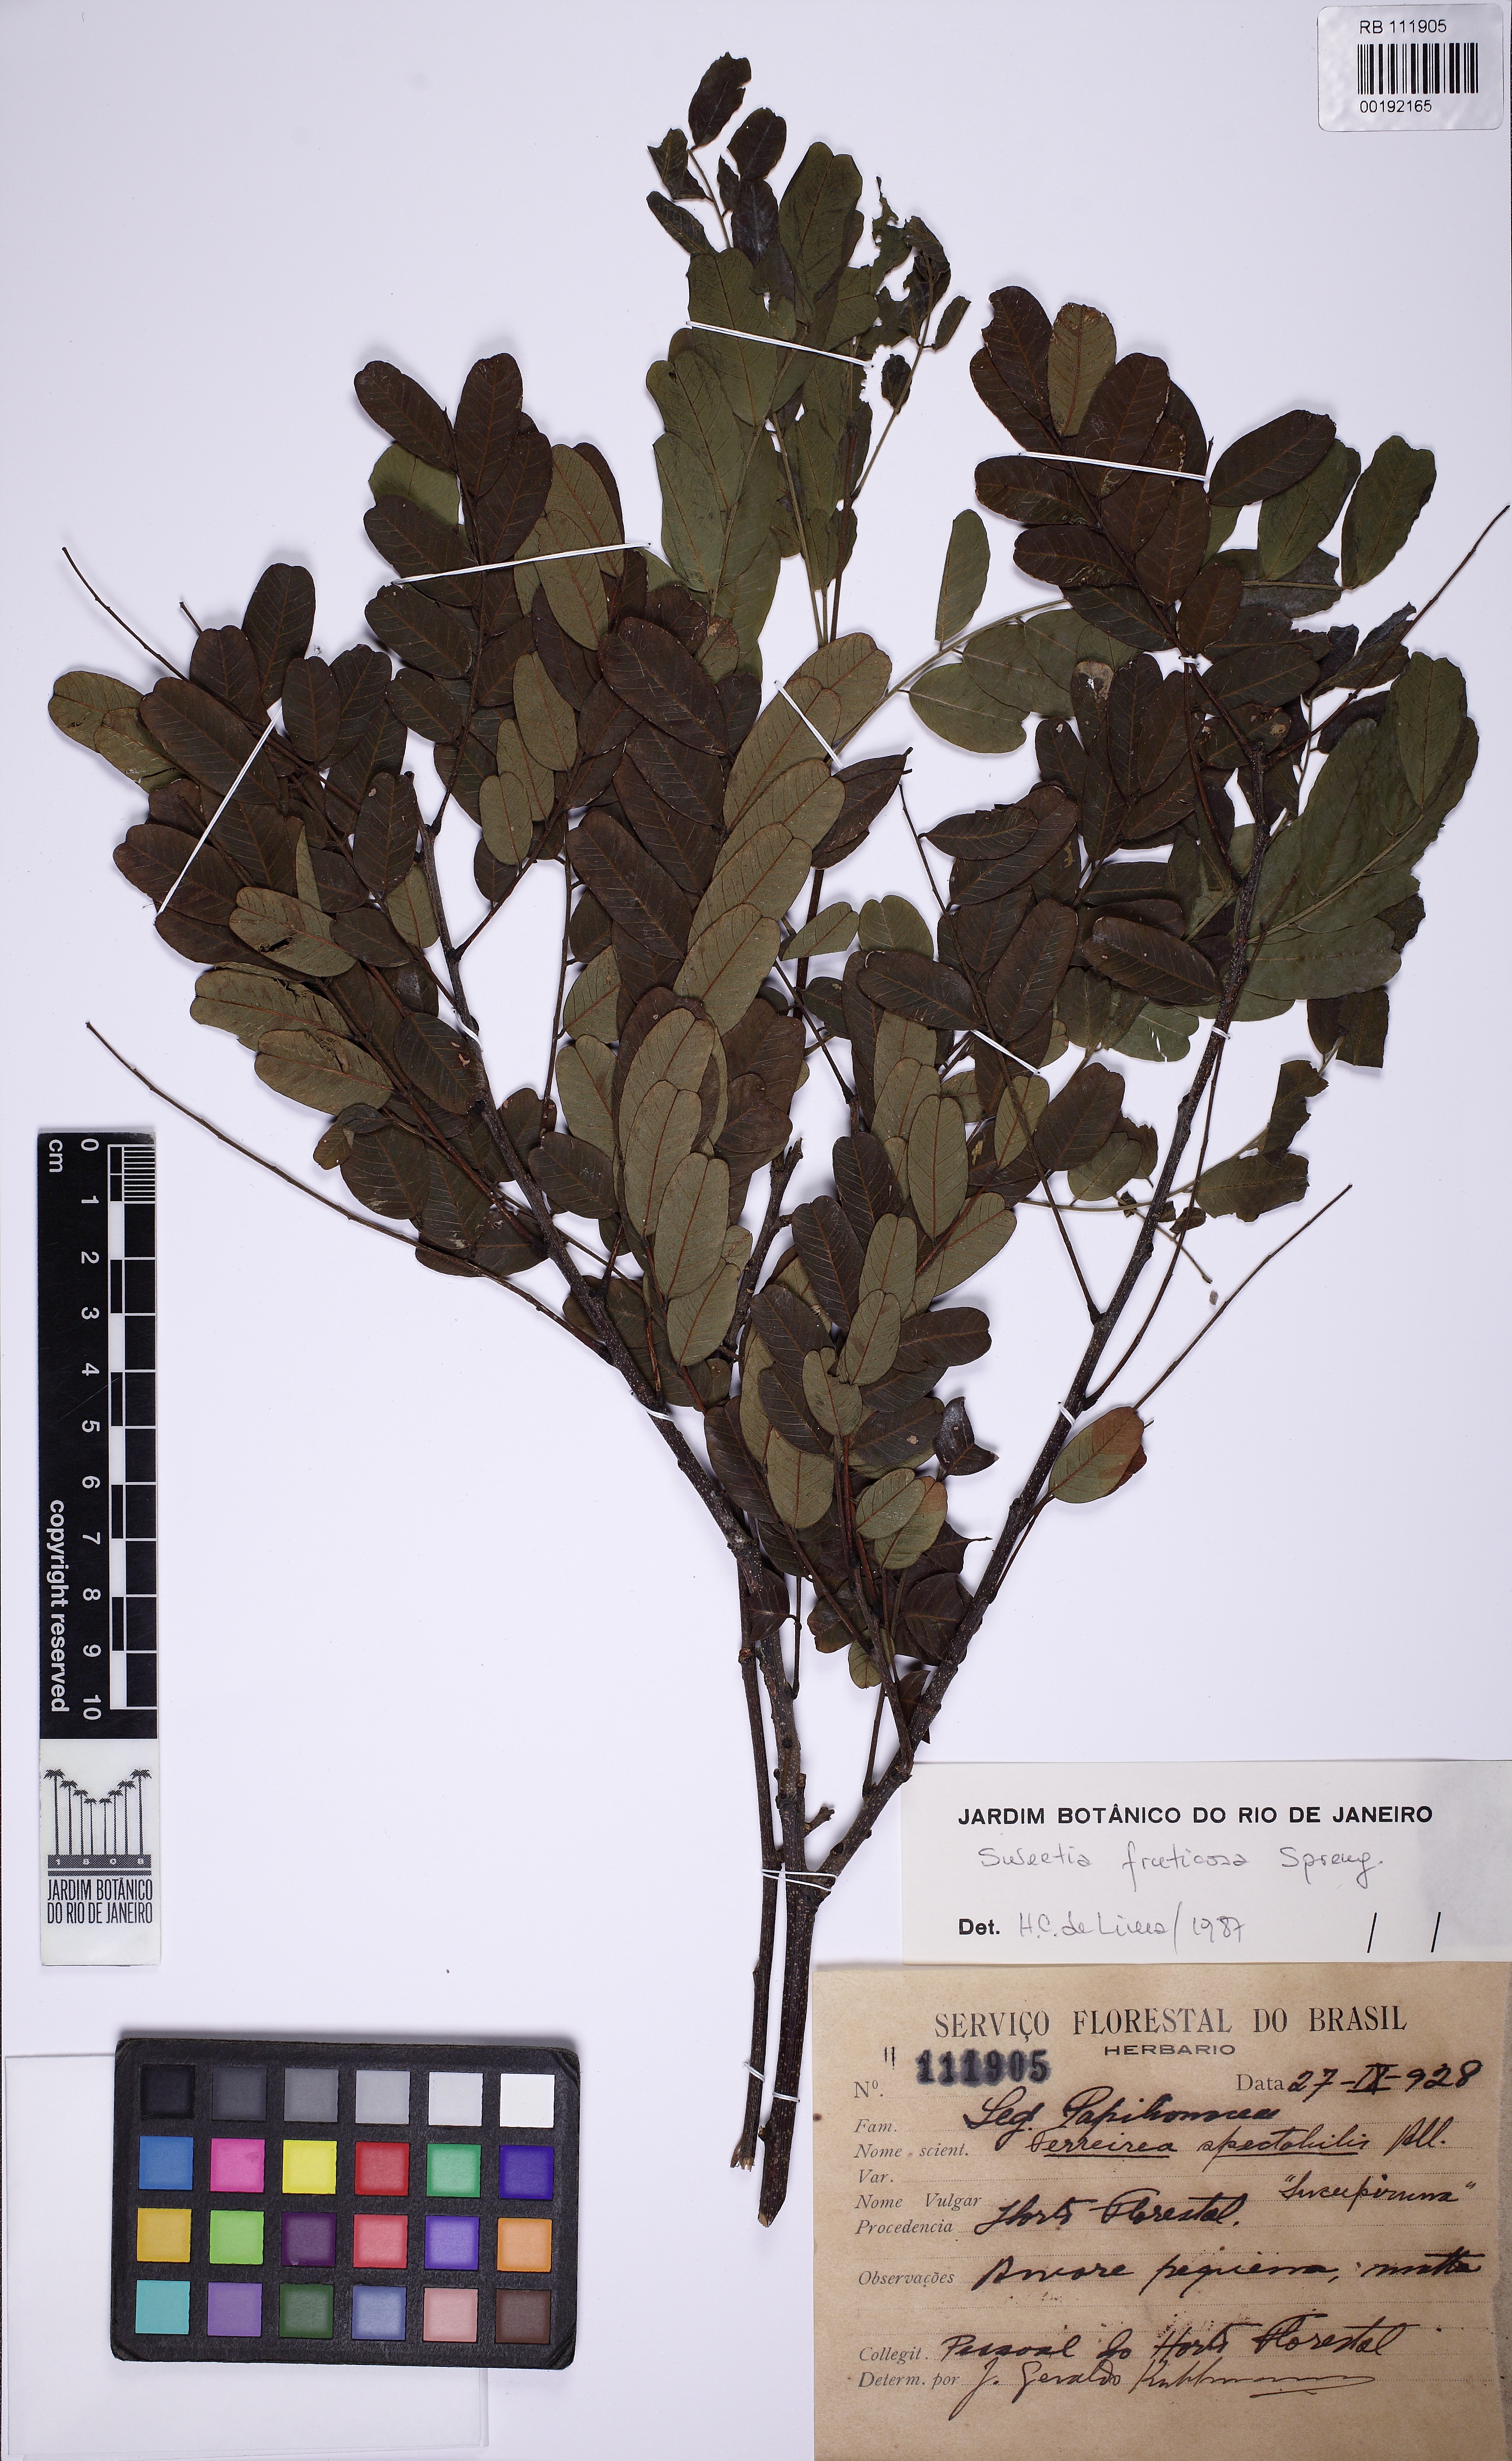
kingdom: Plantae
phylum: Tracheophyta
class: Magnoliopsida
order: Fabales
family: Fabaceae
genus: Sweetia
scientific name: Sweetia fruticosa
